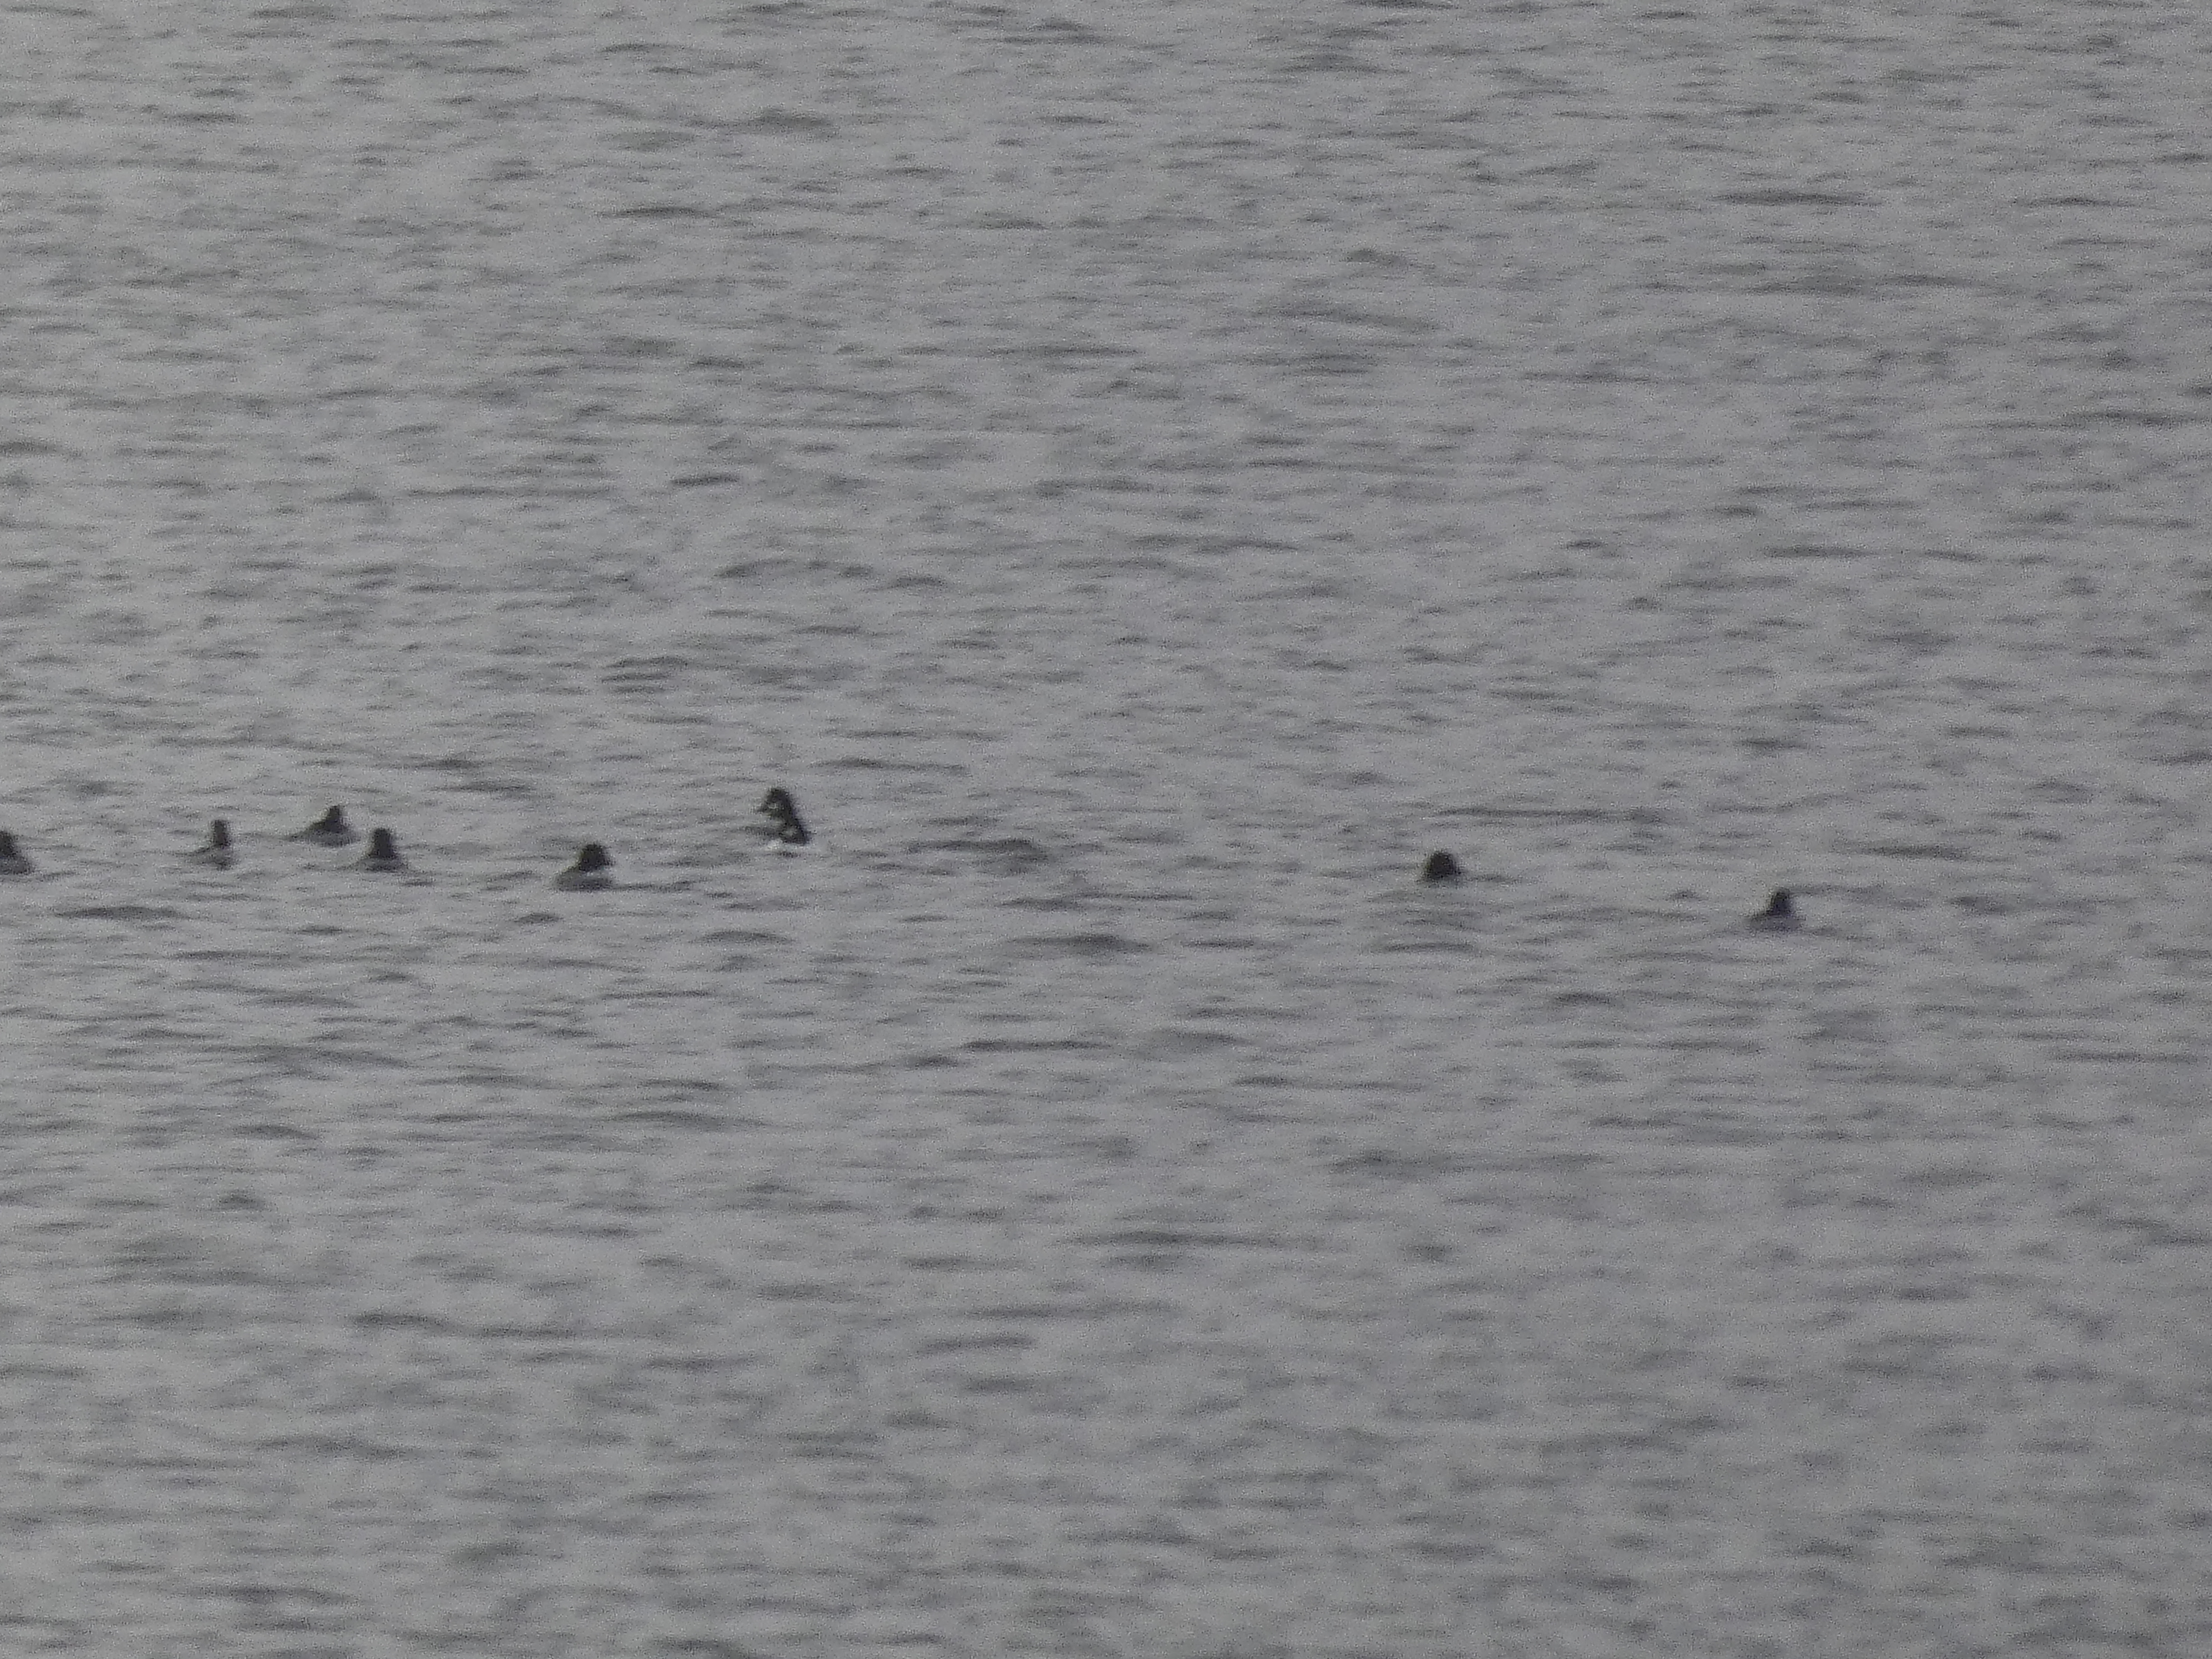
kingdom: Animalia
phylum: Chordata
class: Aves
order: Anseriformes
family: Anatidae
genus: Bucephala
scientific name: Bucephala clangula
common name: Hvinand
